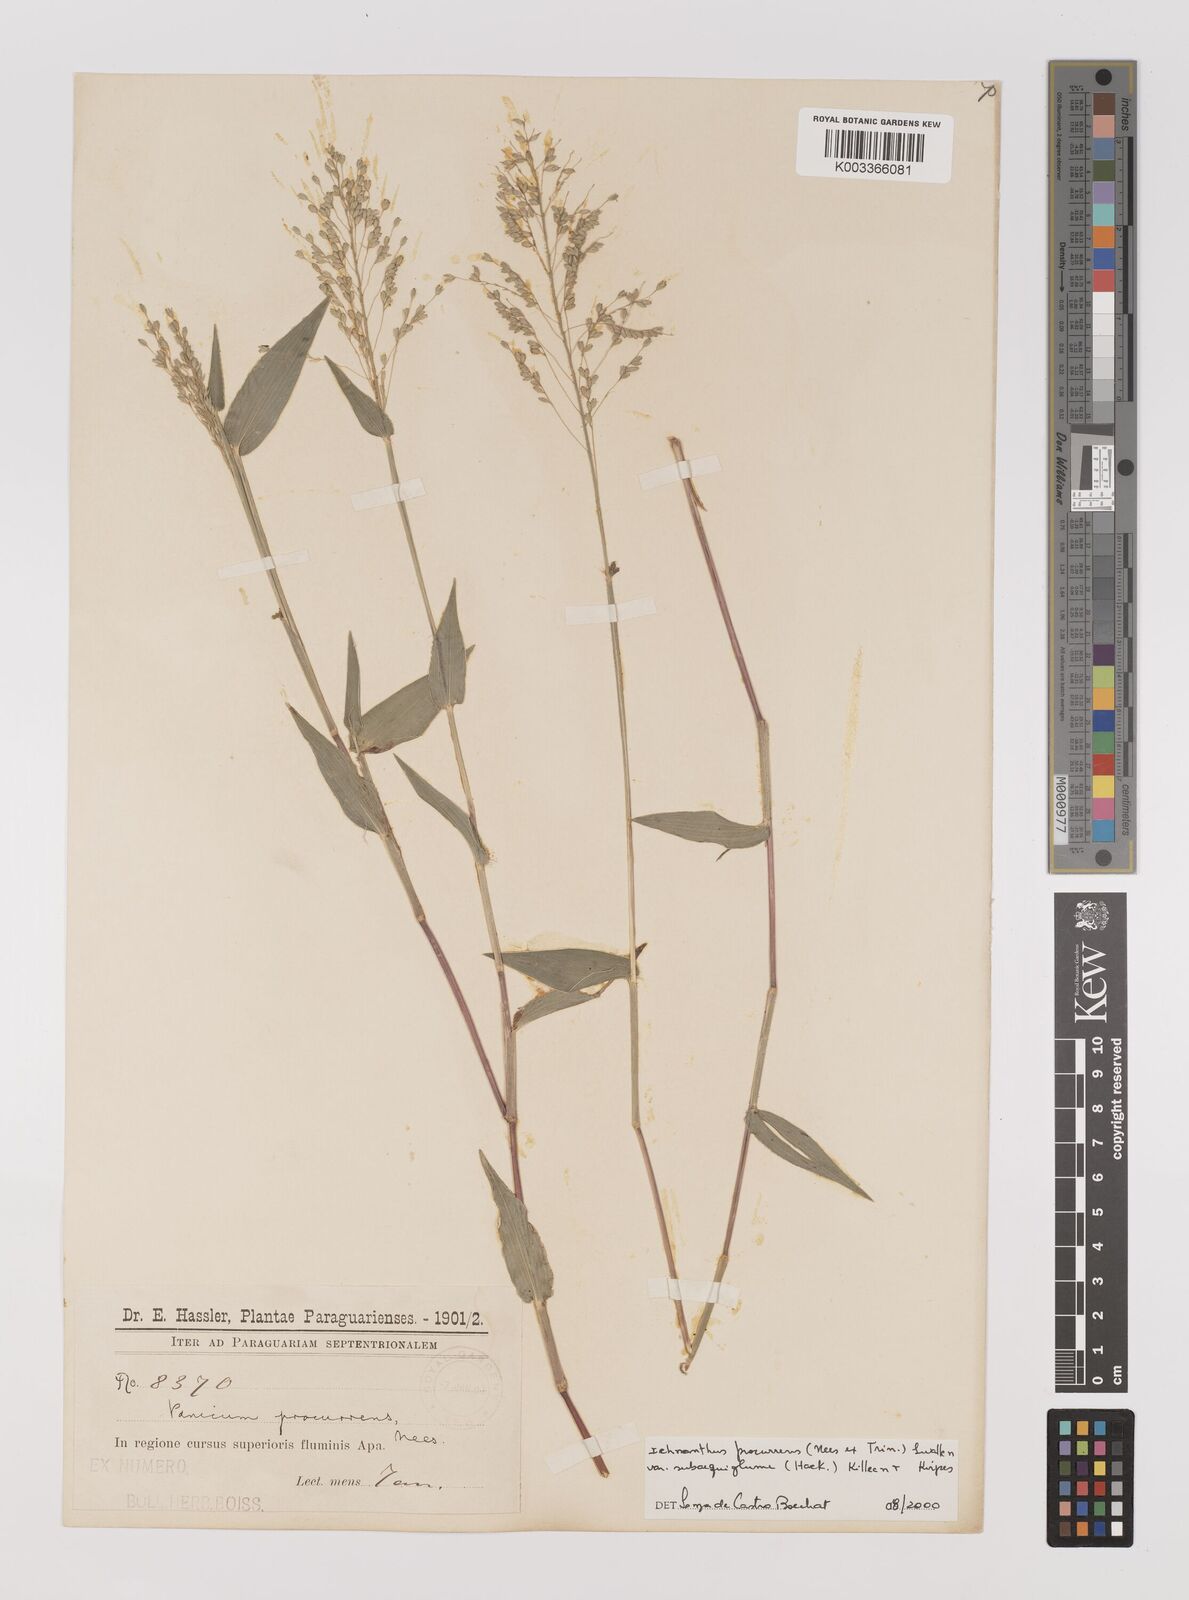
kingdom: Plantae
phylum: Tracheophyta
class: Liliopsida
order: Poales
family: Poaceae
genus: Oedochloa
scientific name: Oedochloa procurrens
